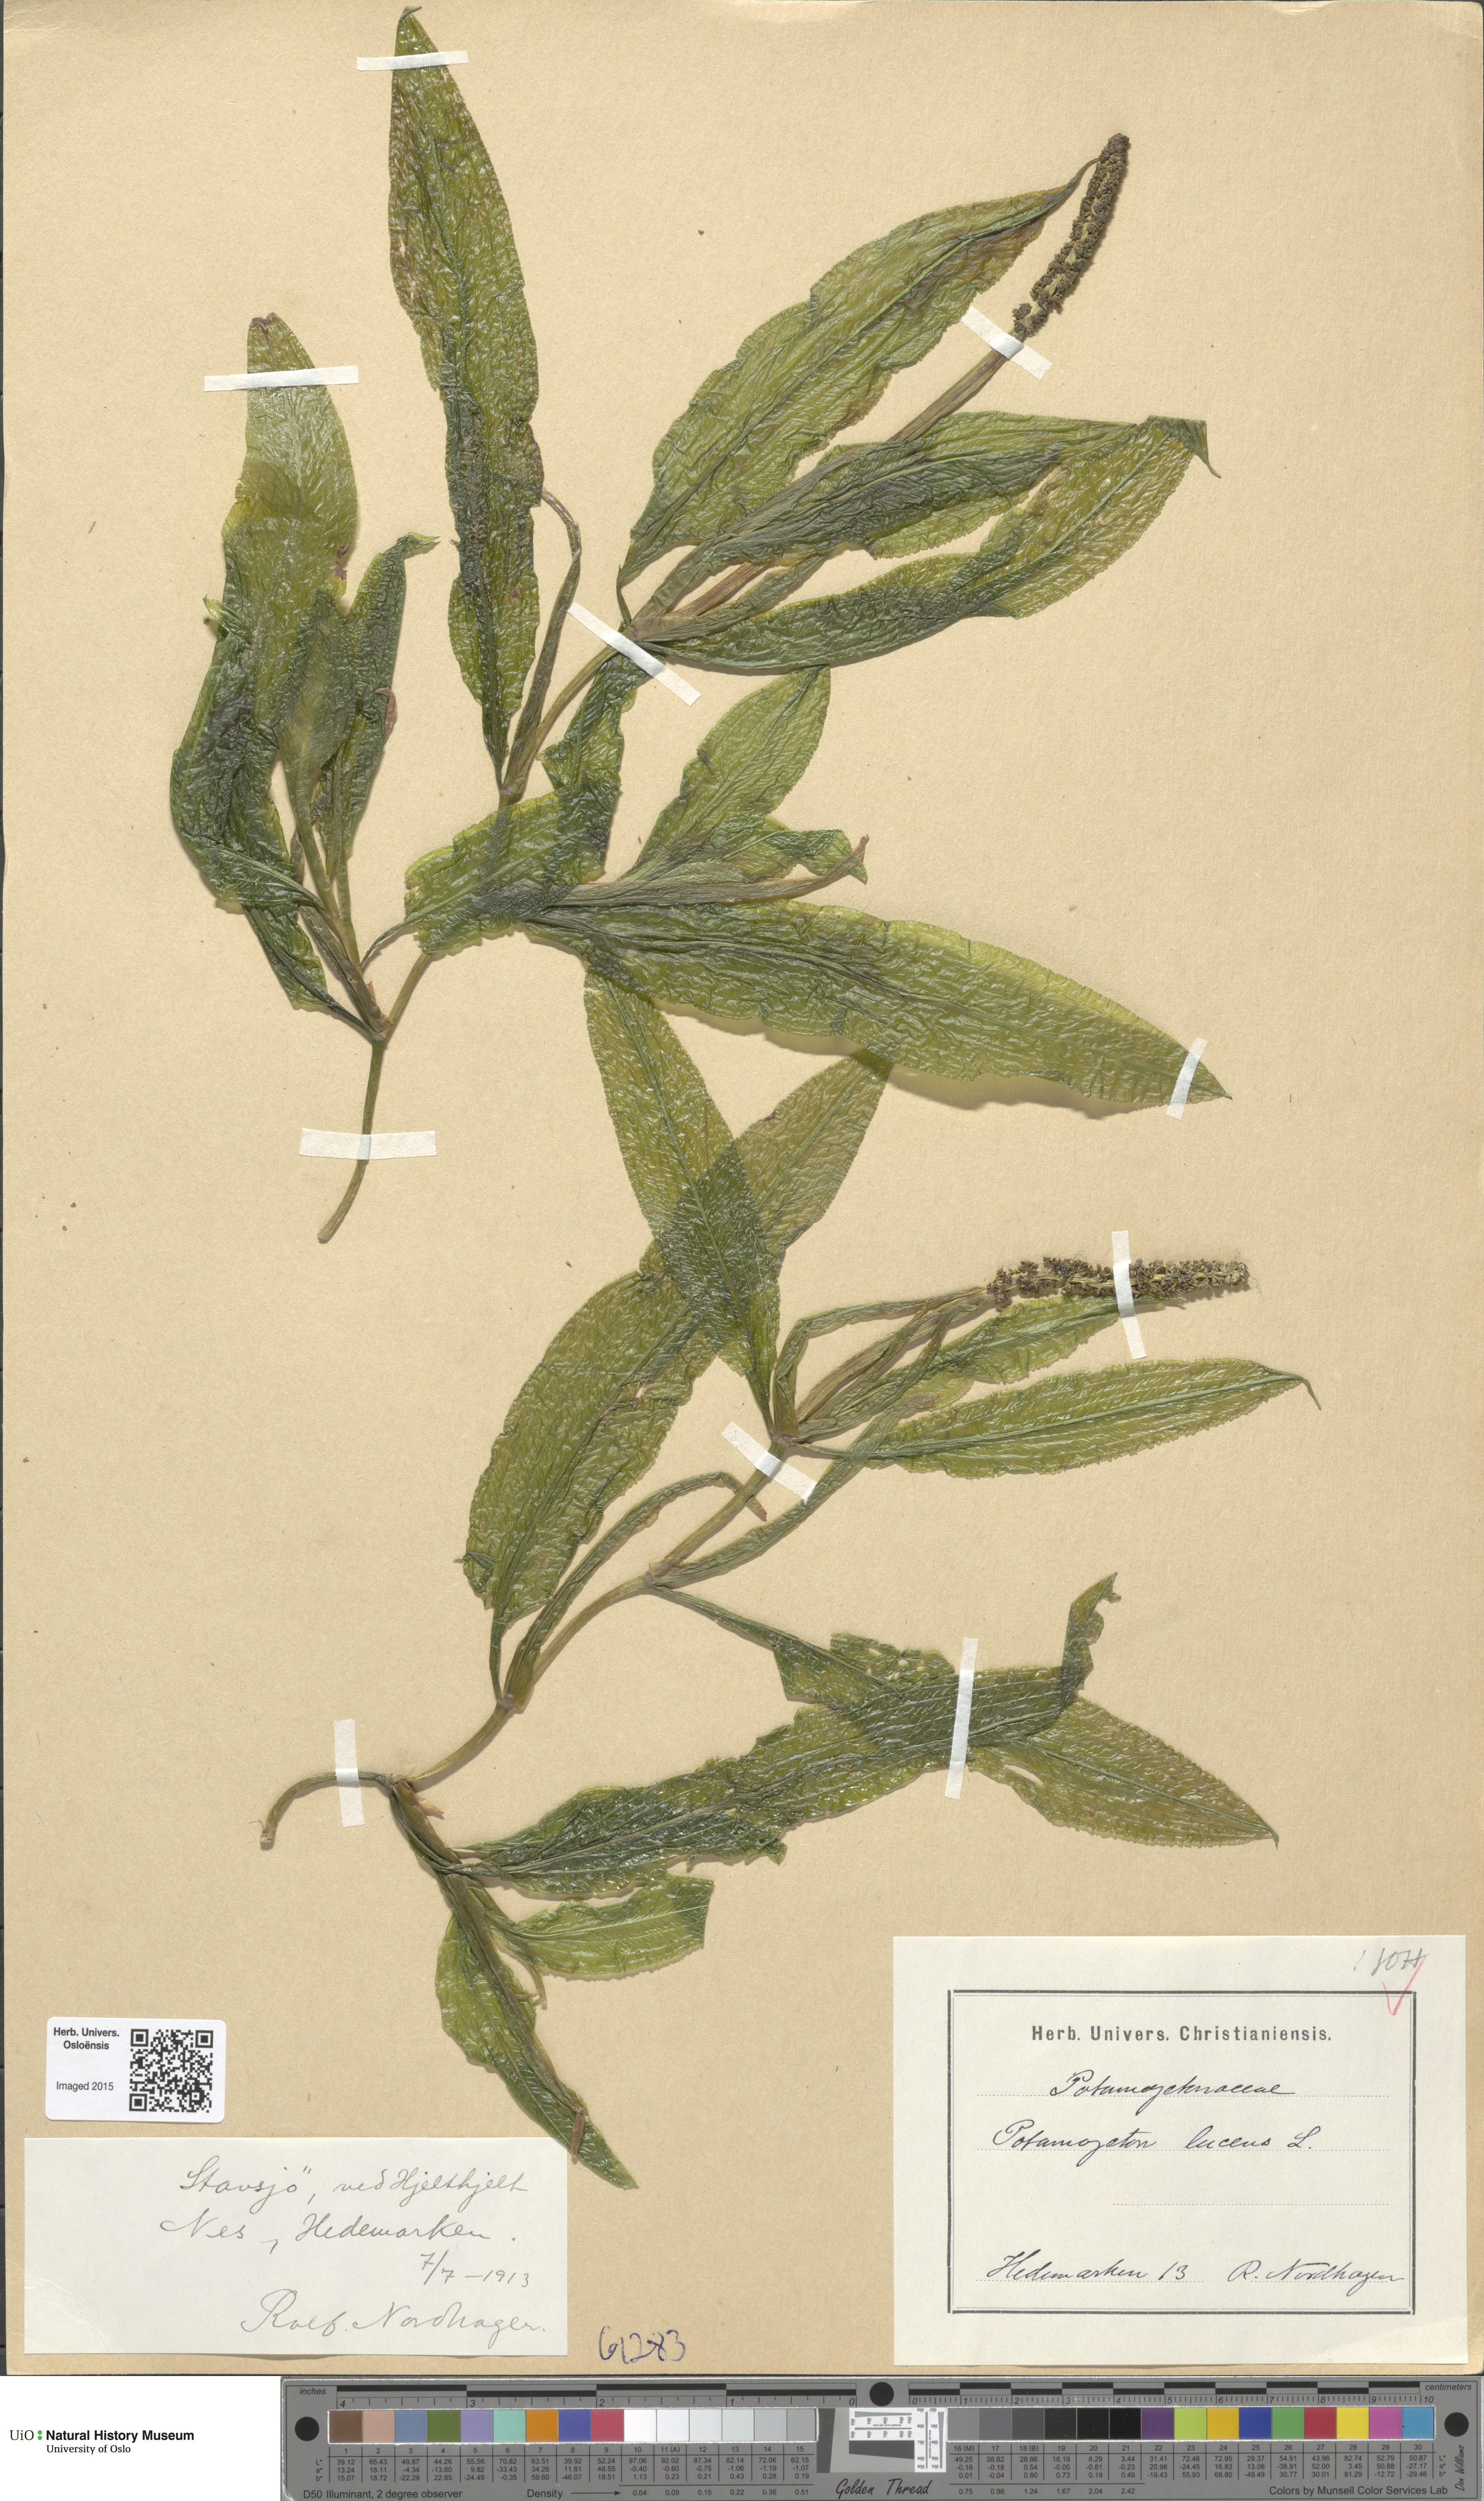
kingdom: Plantae
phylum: Tracheophyta
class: Liliopsida
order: Alismatales
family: Potamogetonaceae
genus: Potamogeton
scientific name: Potamogeton lucens
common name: Shining pondweed
